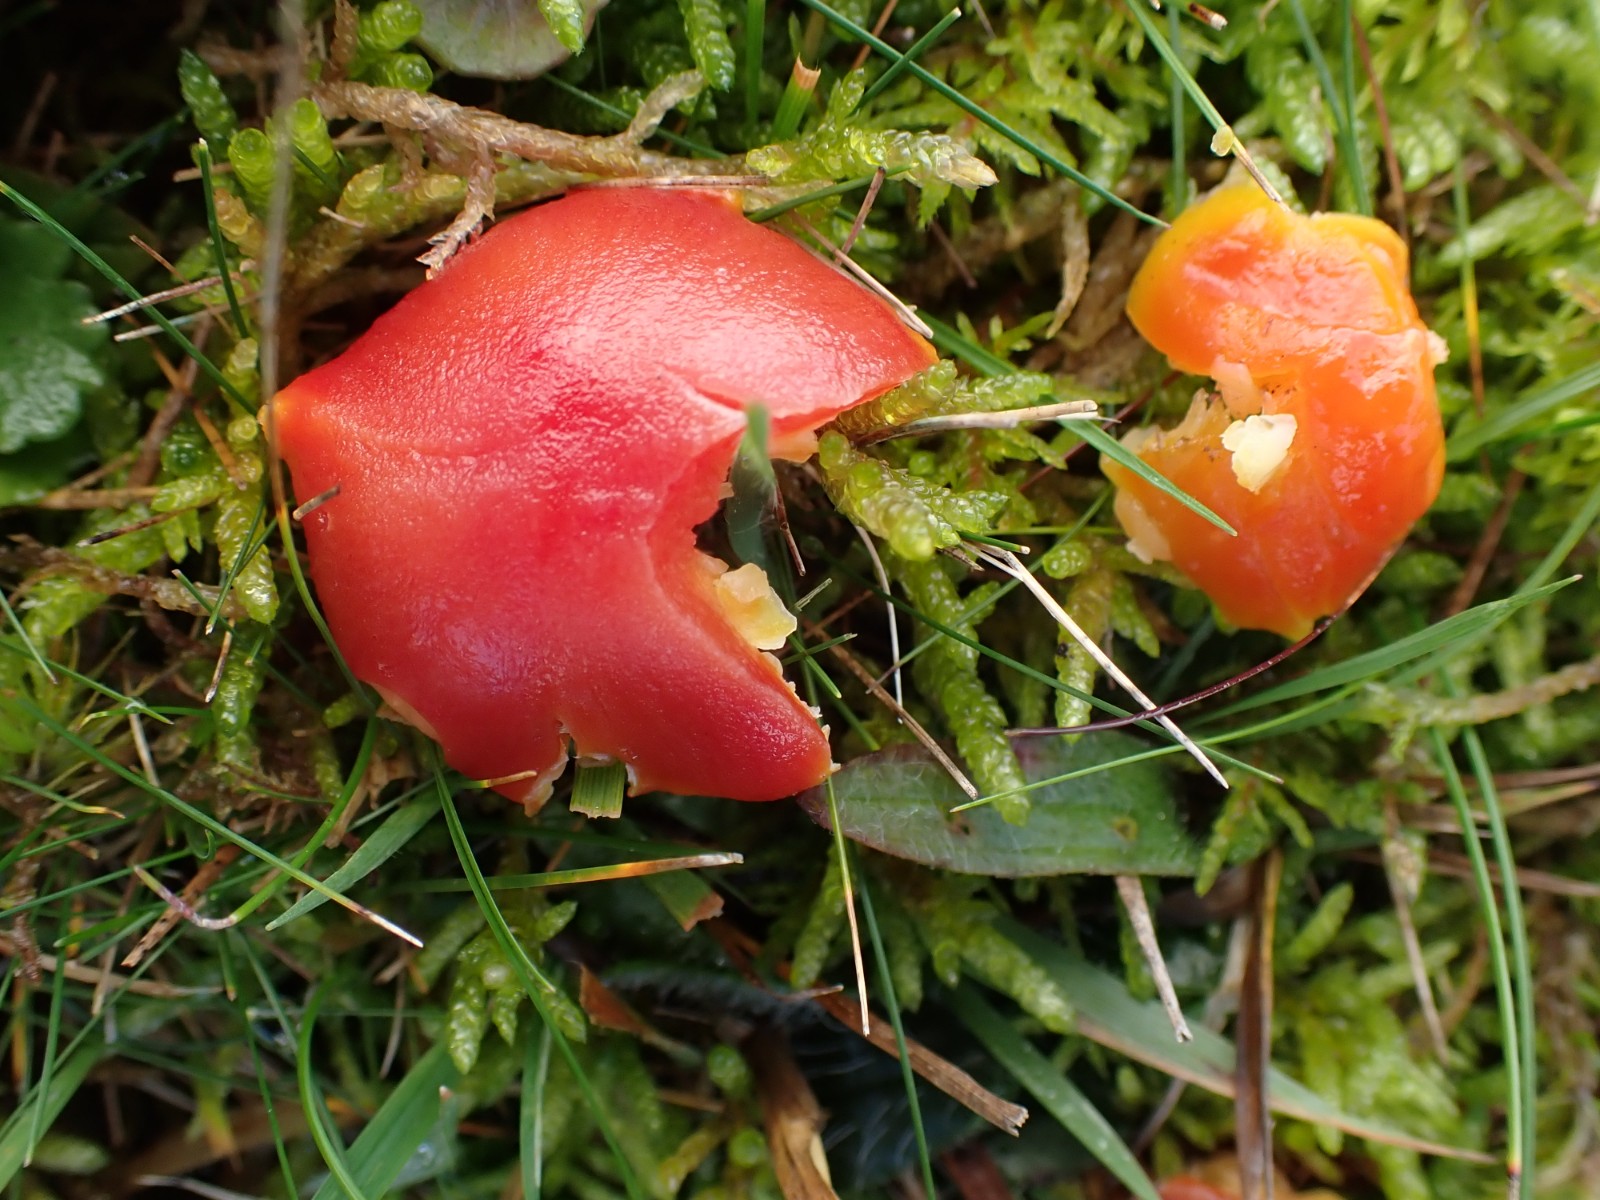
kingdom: Fungi
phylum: Basidiomycota
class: Agaricomycetes
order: Agaricales
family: Hygrophoraceae
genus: Hygrocybe
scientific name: Hygrocybe coccinea
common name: cinnober-vokshat
